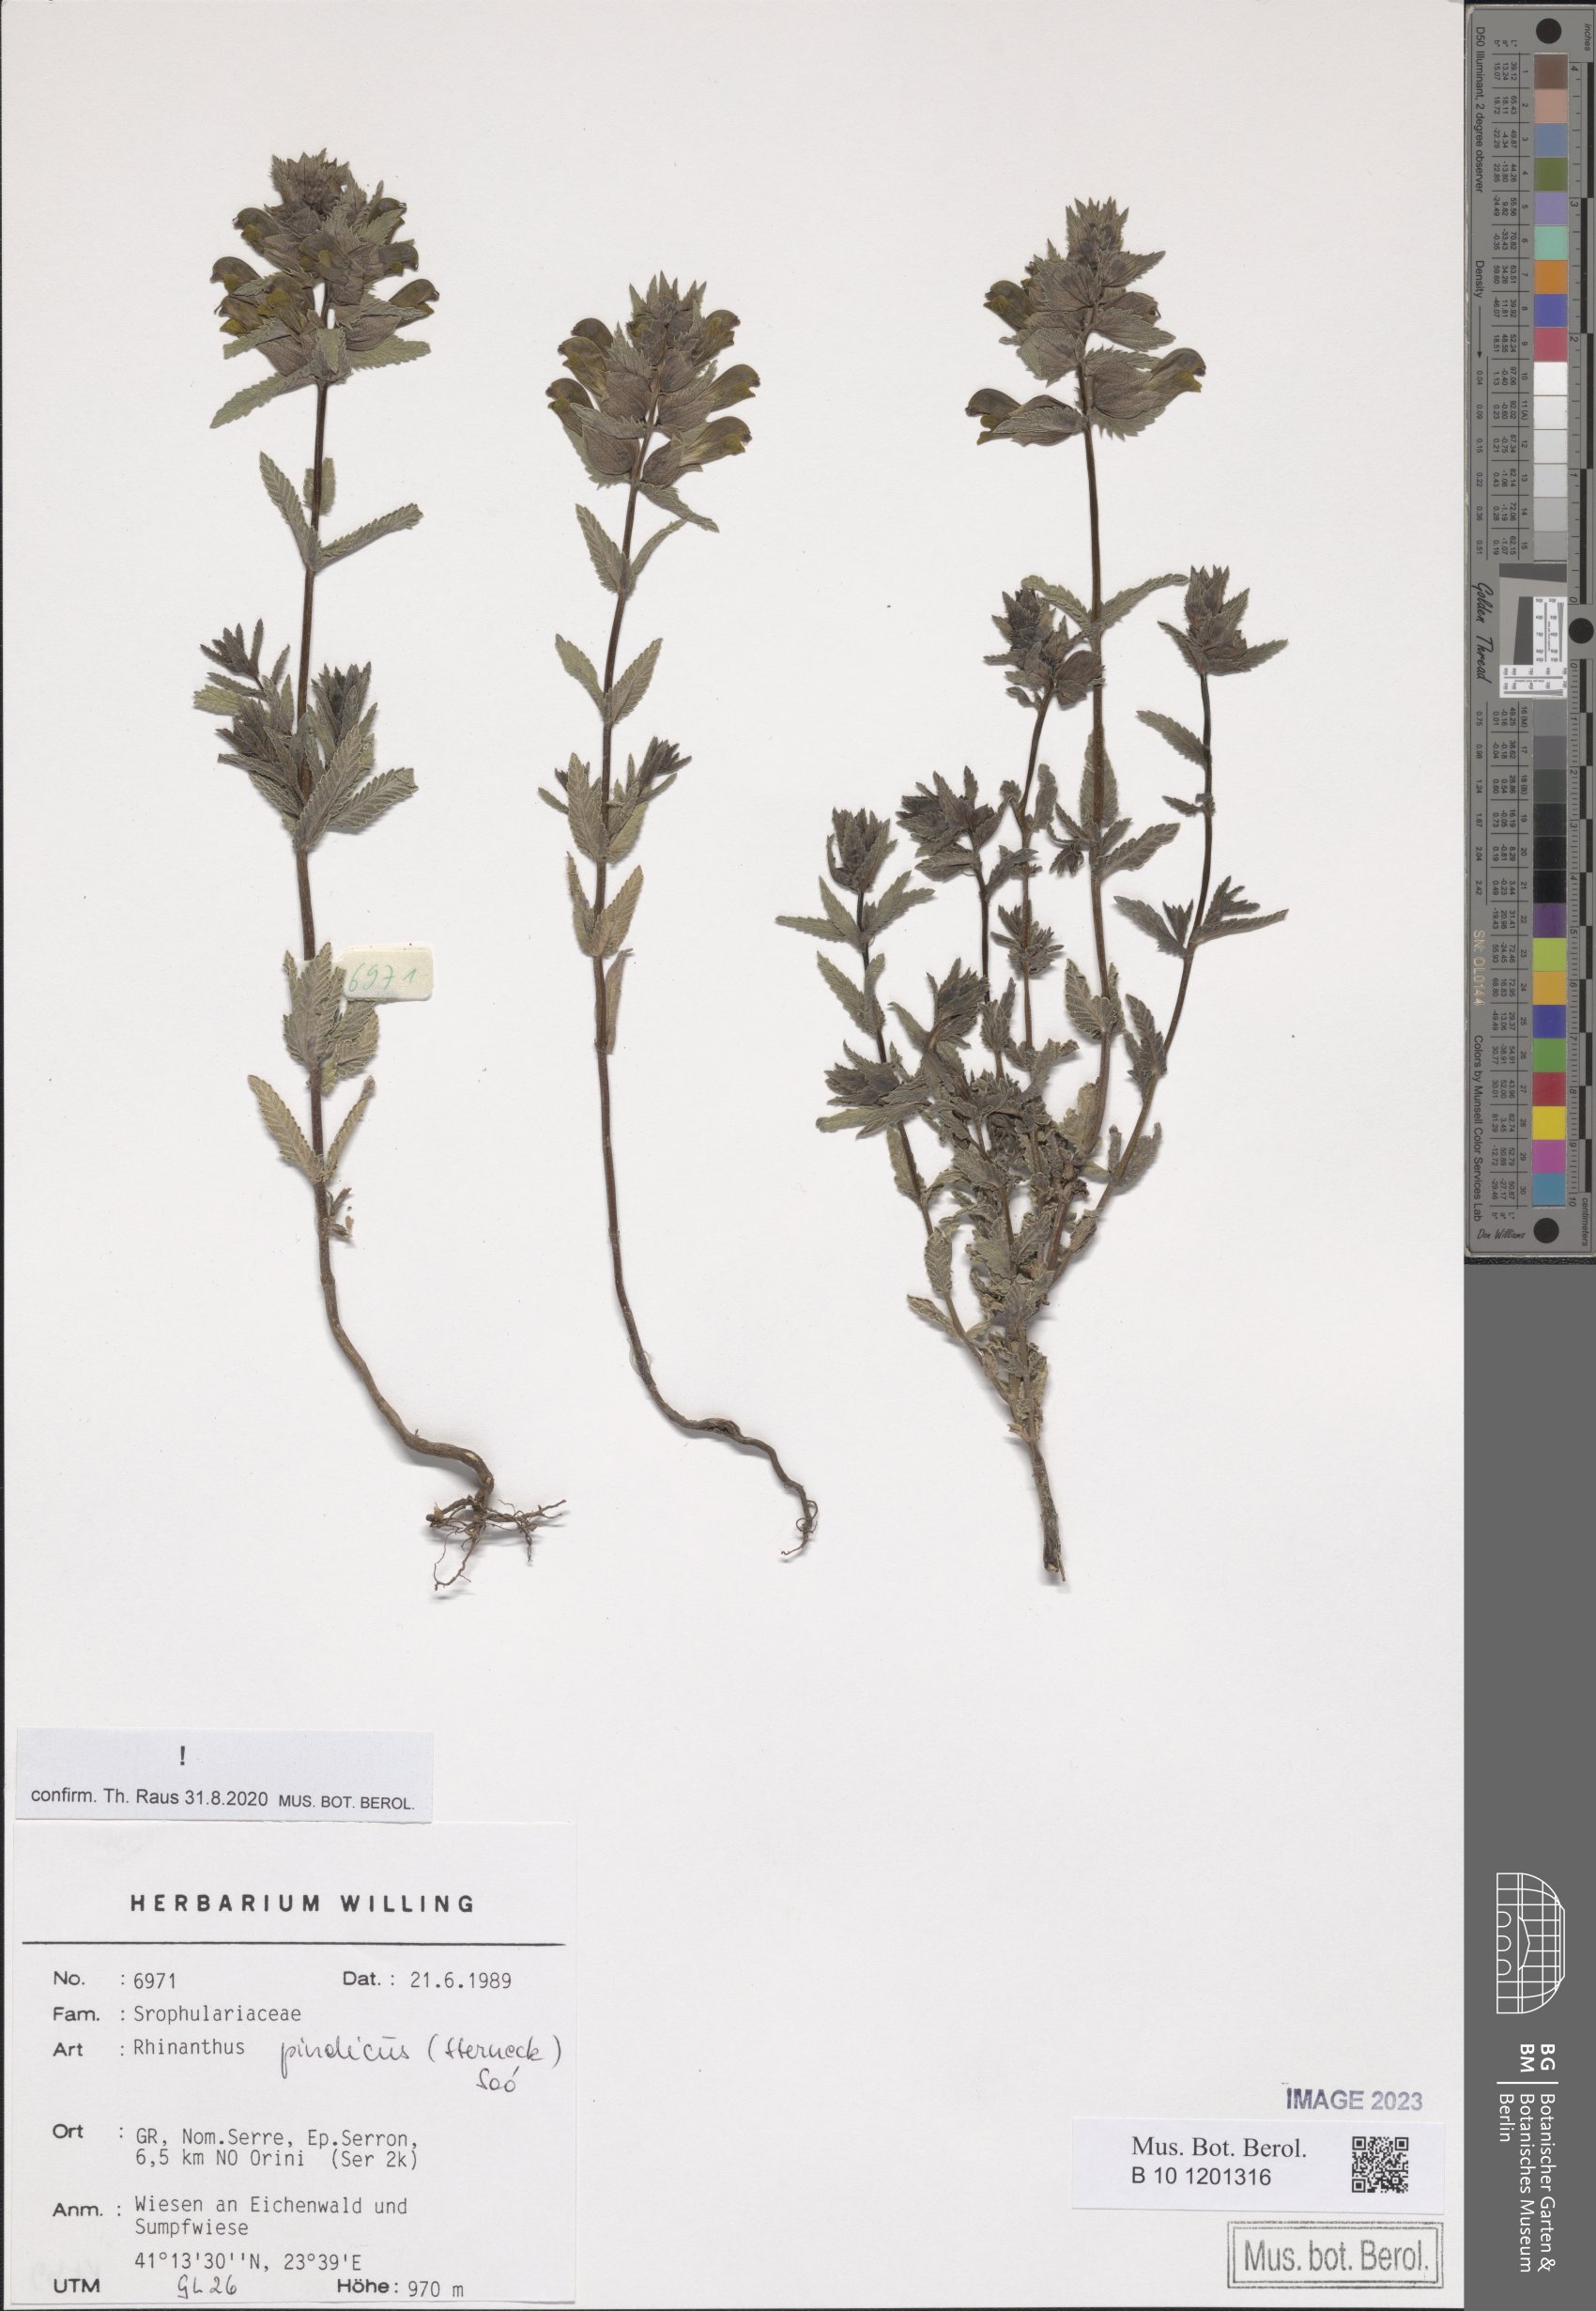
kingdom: Plantae
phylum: Tracheophyta
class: Magnoliopsida
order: Lamiales
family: Orobanchaceae
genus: Rhinanthus
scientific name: Rhinanthus pindicus
